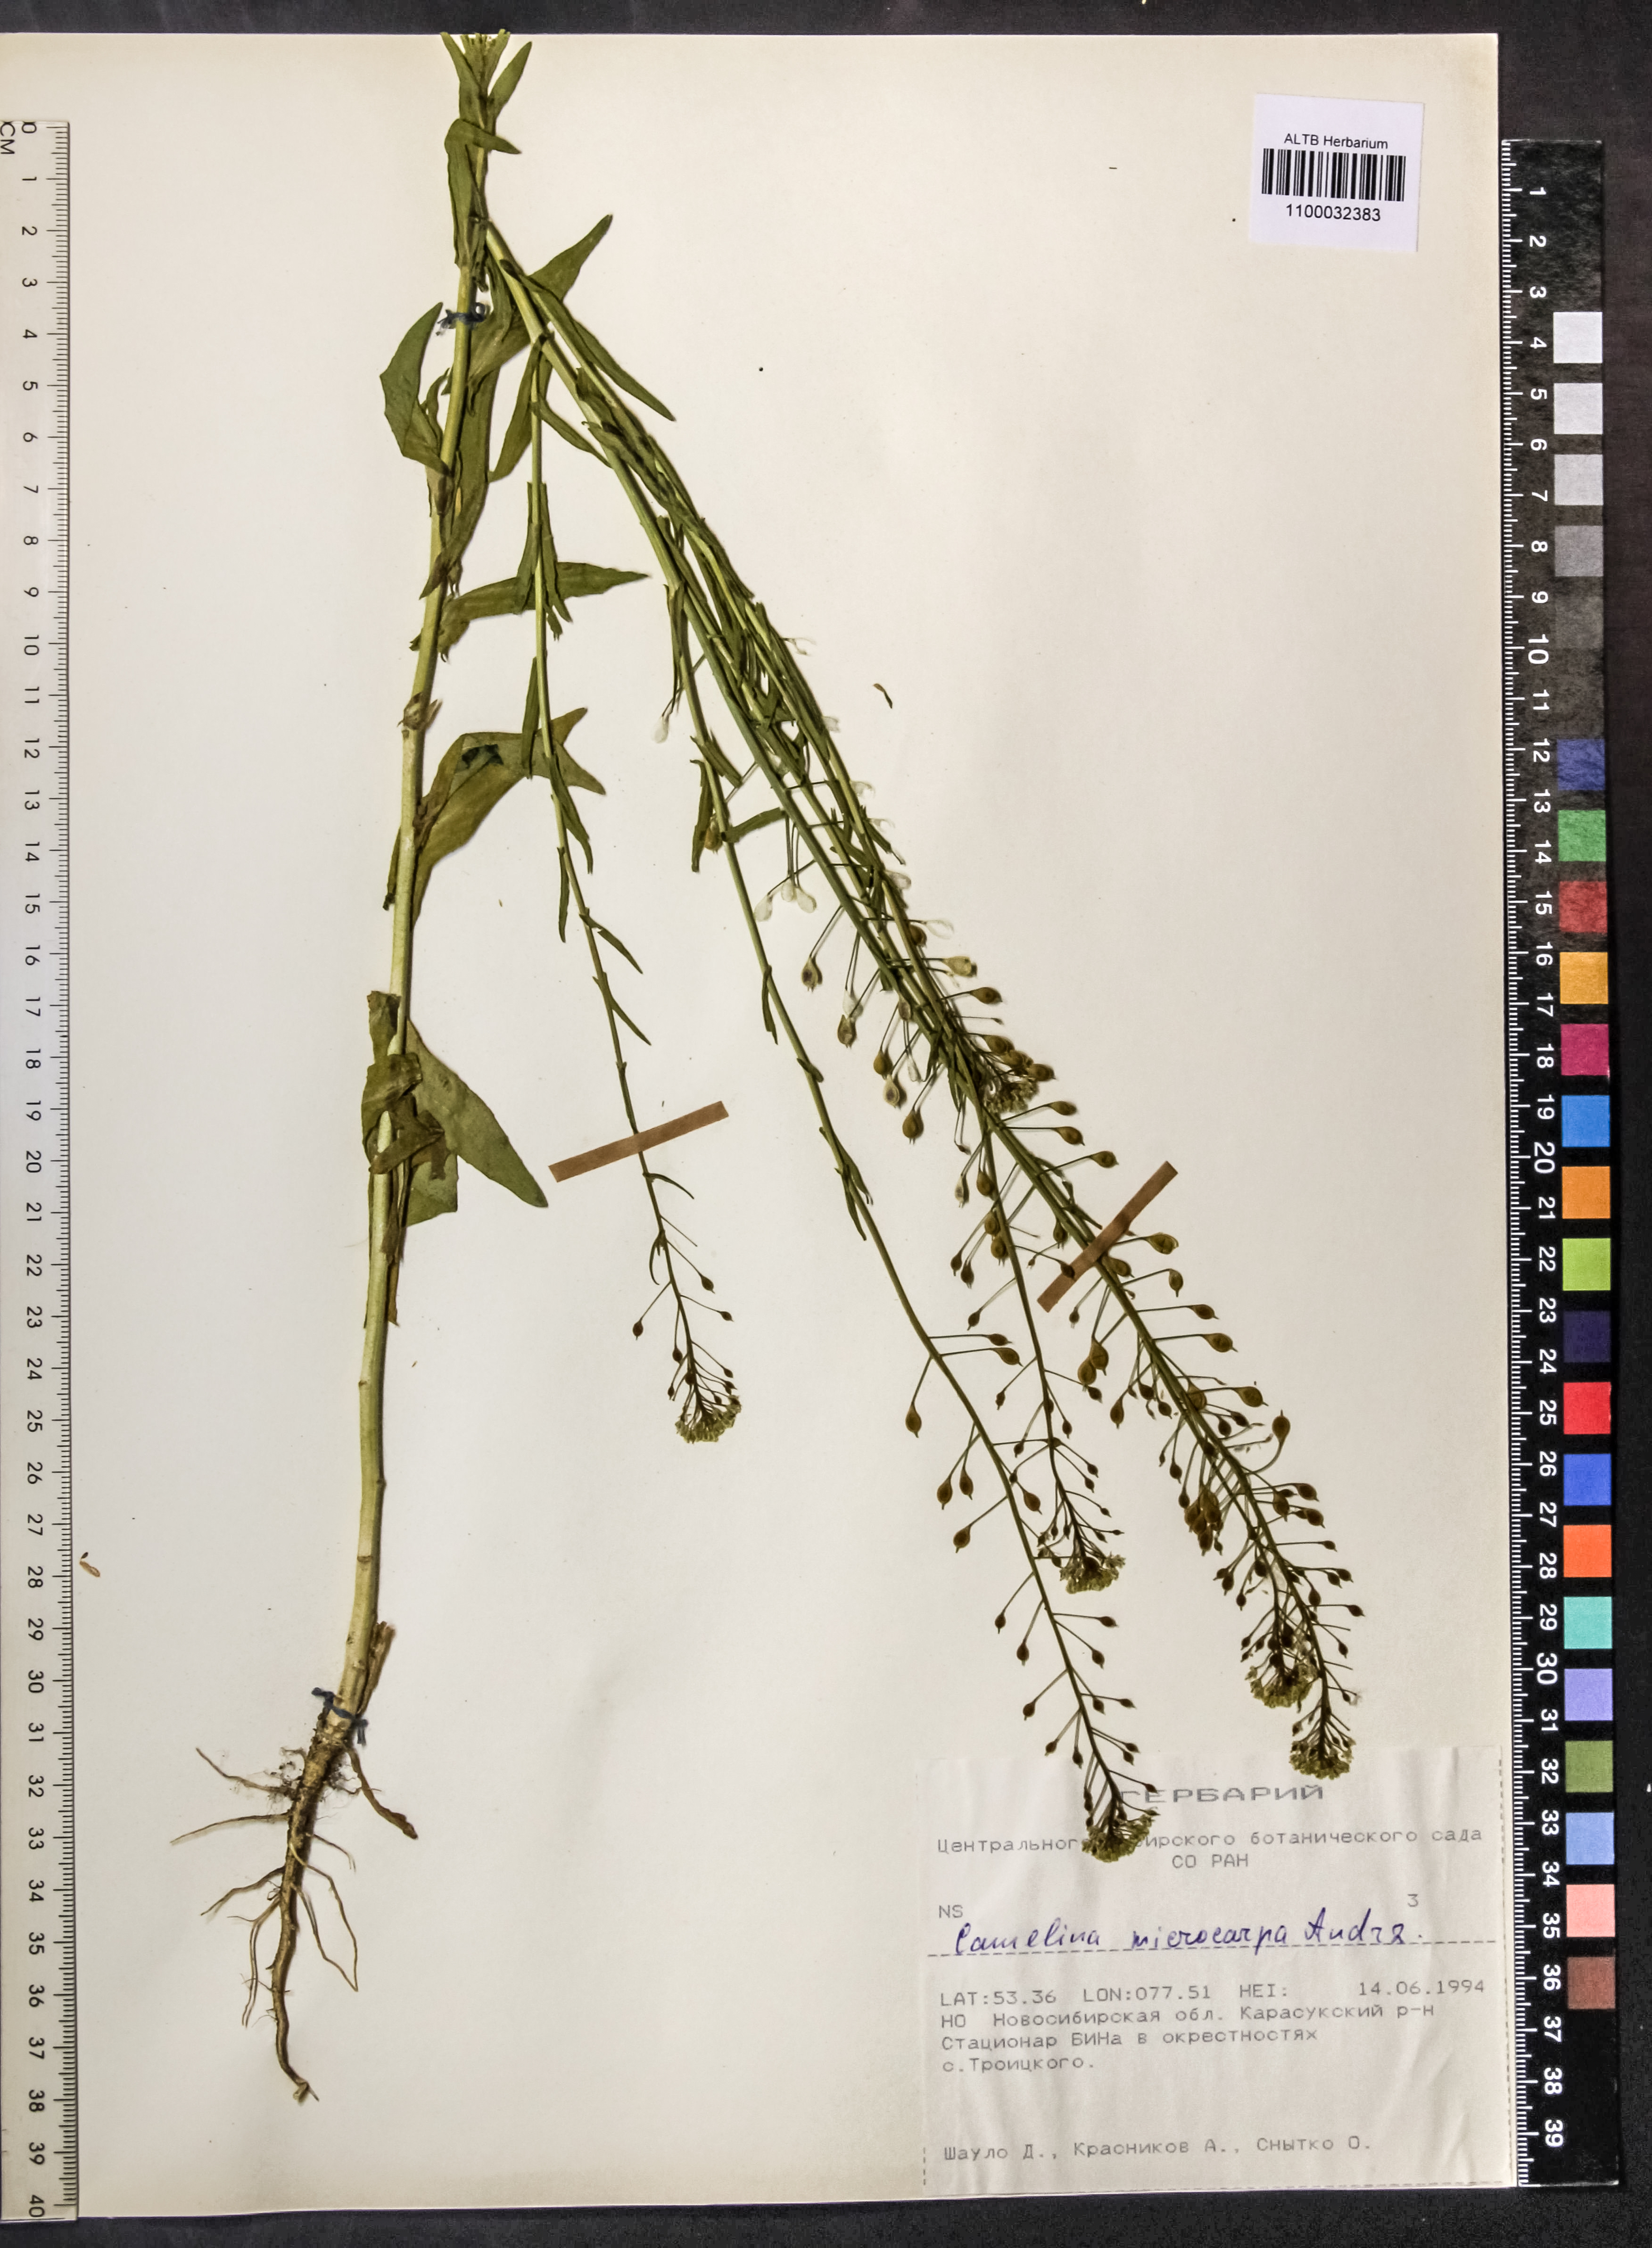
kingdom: Plantae
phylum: Tracheophyta
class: Magnoliopsida
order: Brassicales
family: Brassicaceae
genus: Camelina
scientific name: Camelina microcarpa
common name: Lesser gold-of-pleasure
